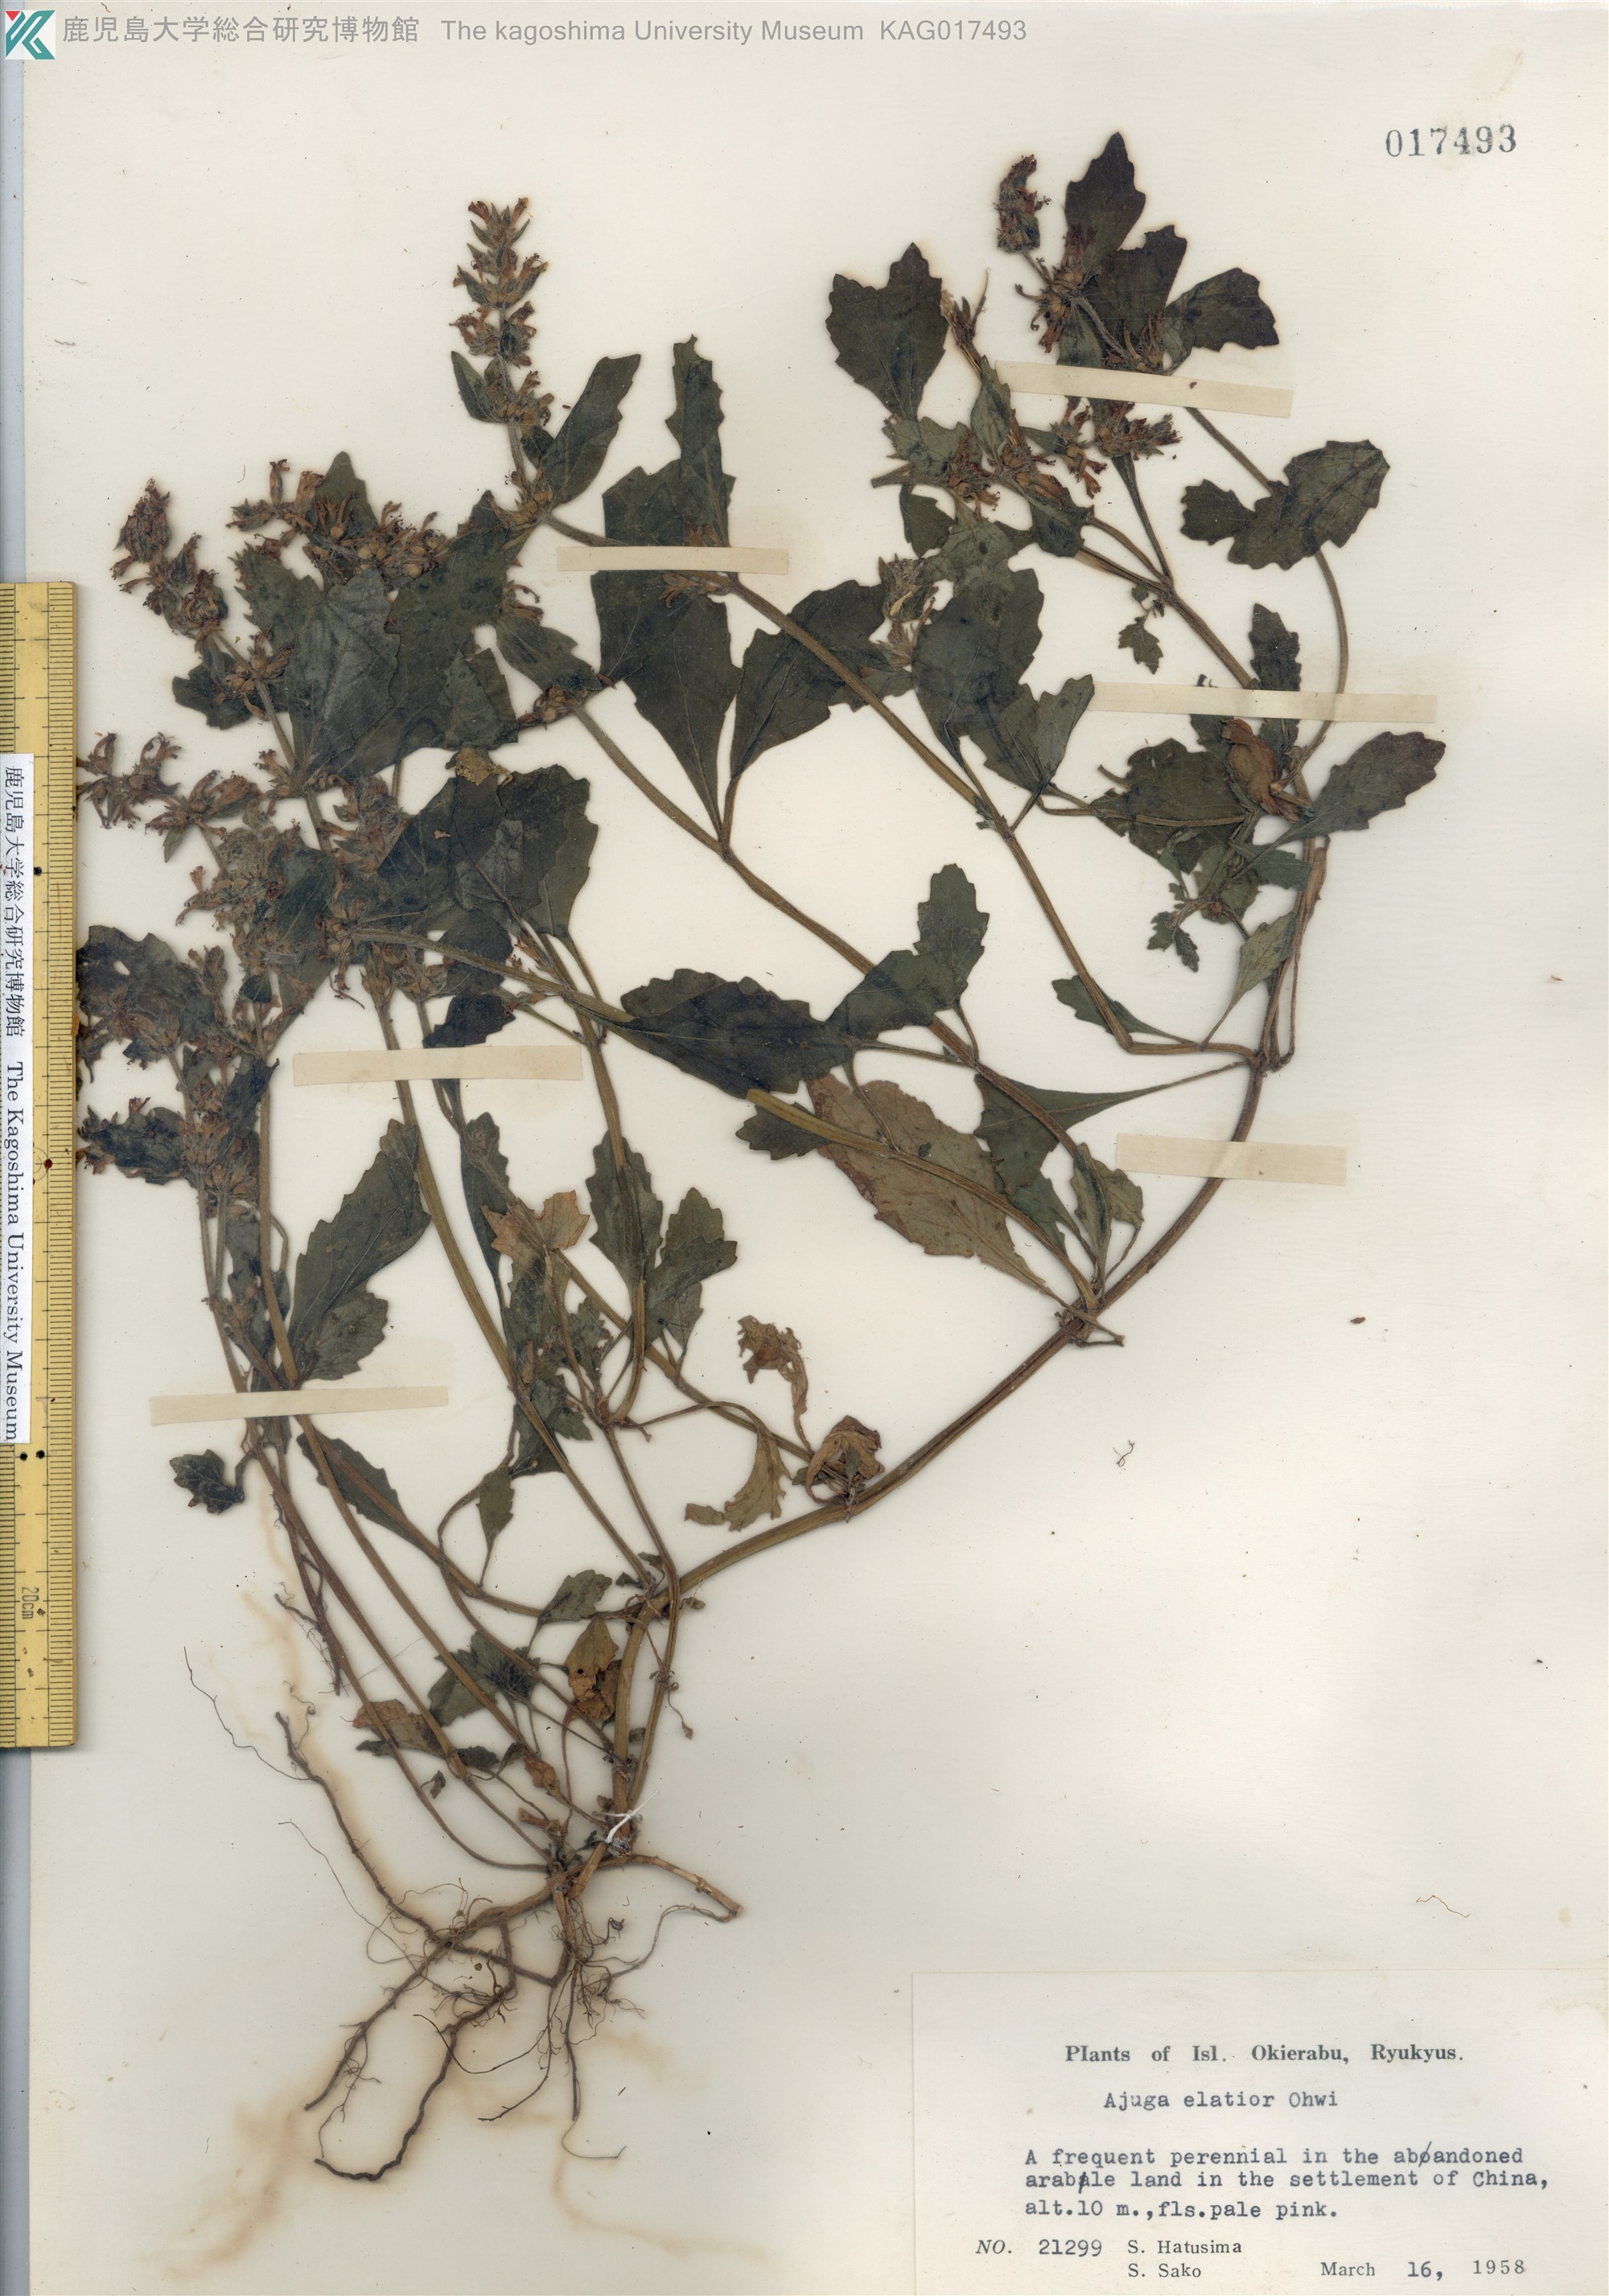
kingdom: Plantae
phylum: Tracheophyta
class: Magnoliopsida
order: Lamiales
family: Lamiaceae
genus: Ajuga
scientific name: Ajuga dictyocarpa
